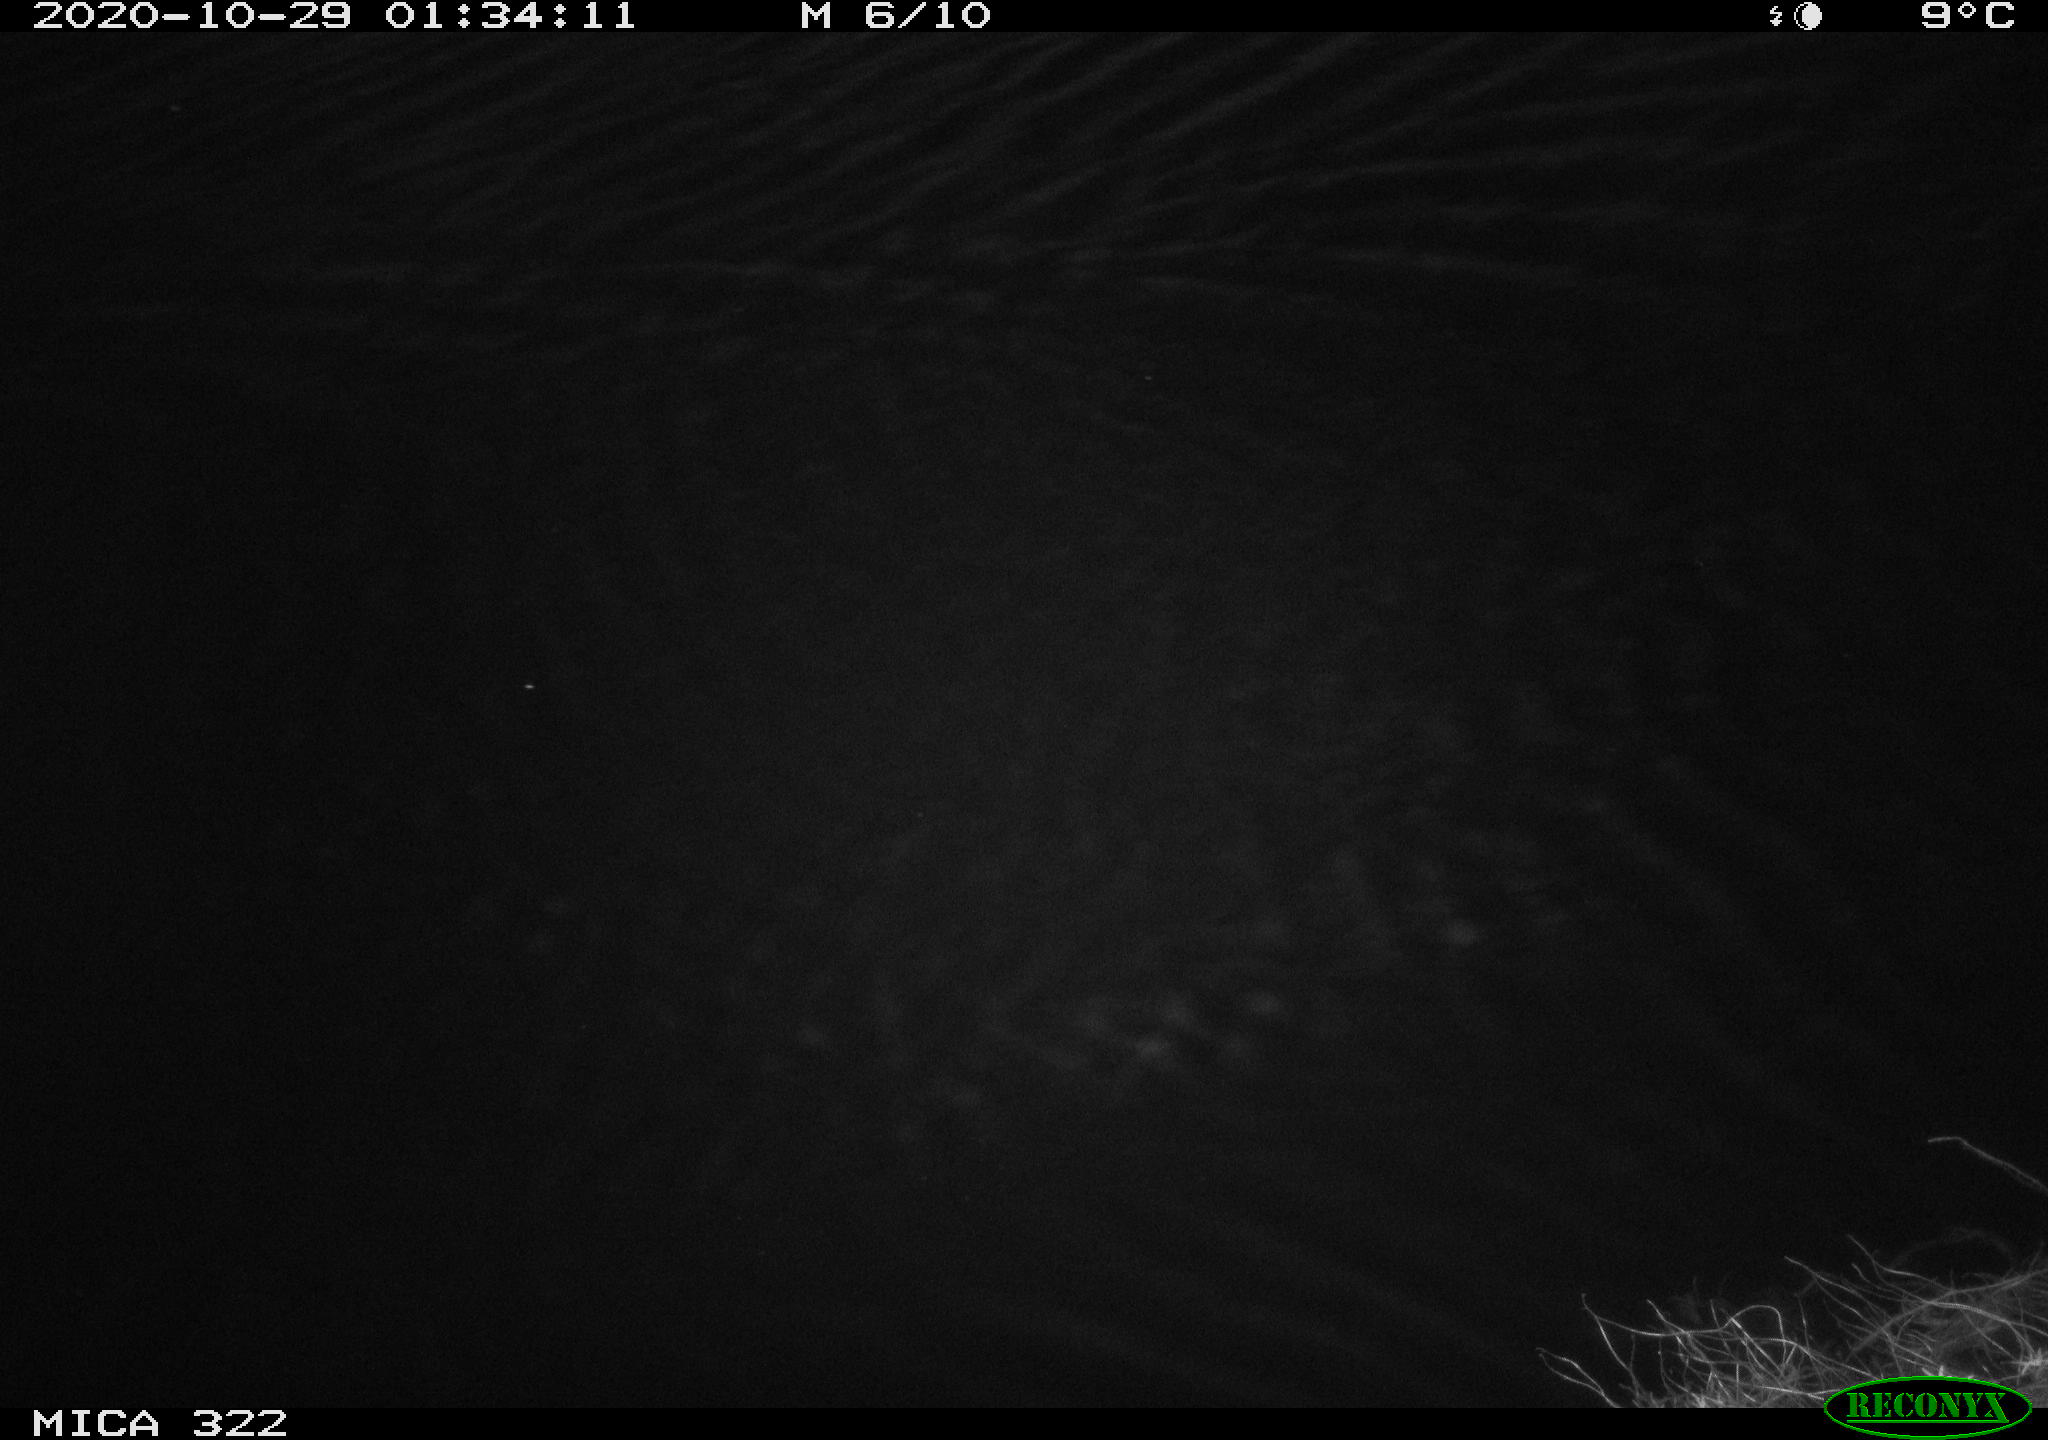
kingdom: Animalia
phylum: Chordata
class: Mammalia
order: Rodentia
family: Muridae
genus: Rattus
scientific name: Rattus norvegicus
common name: Brown rat
